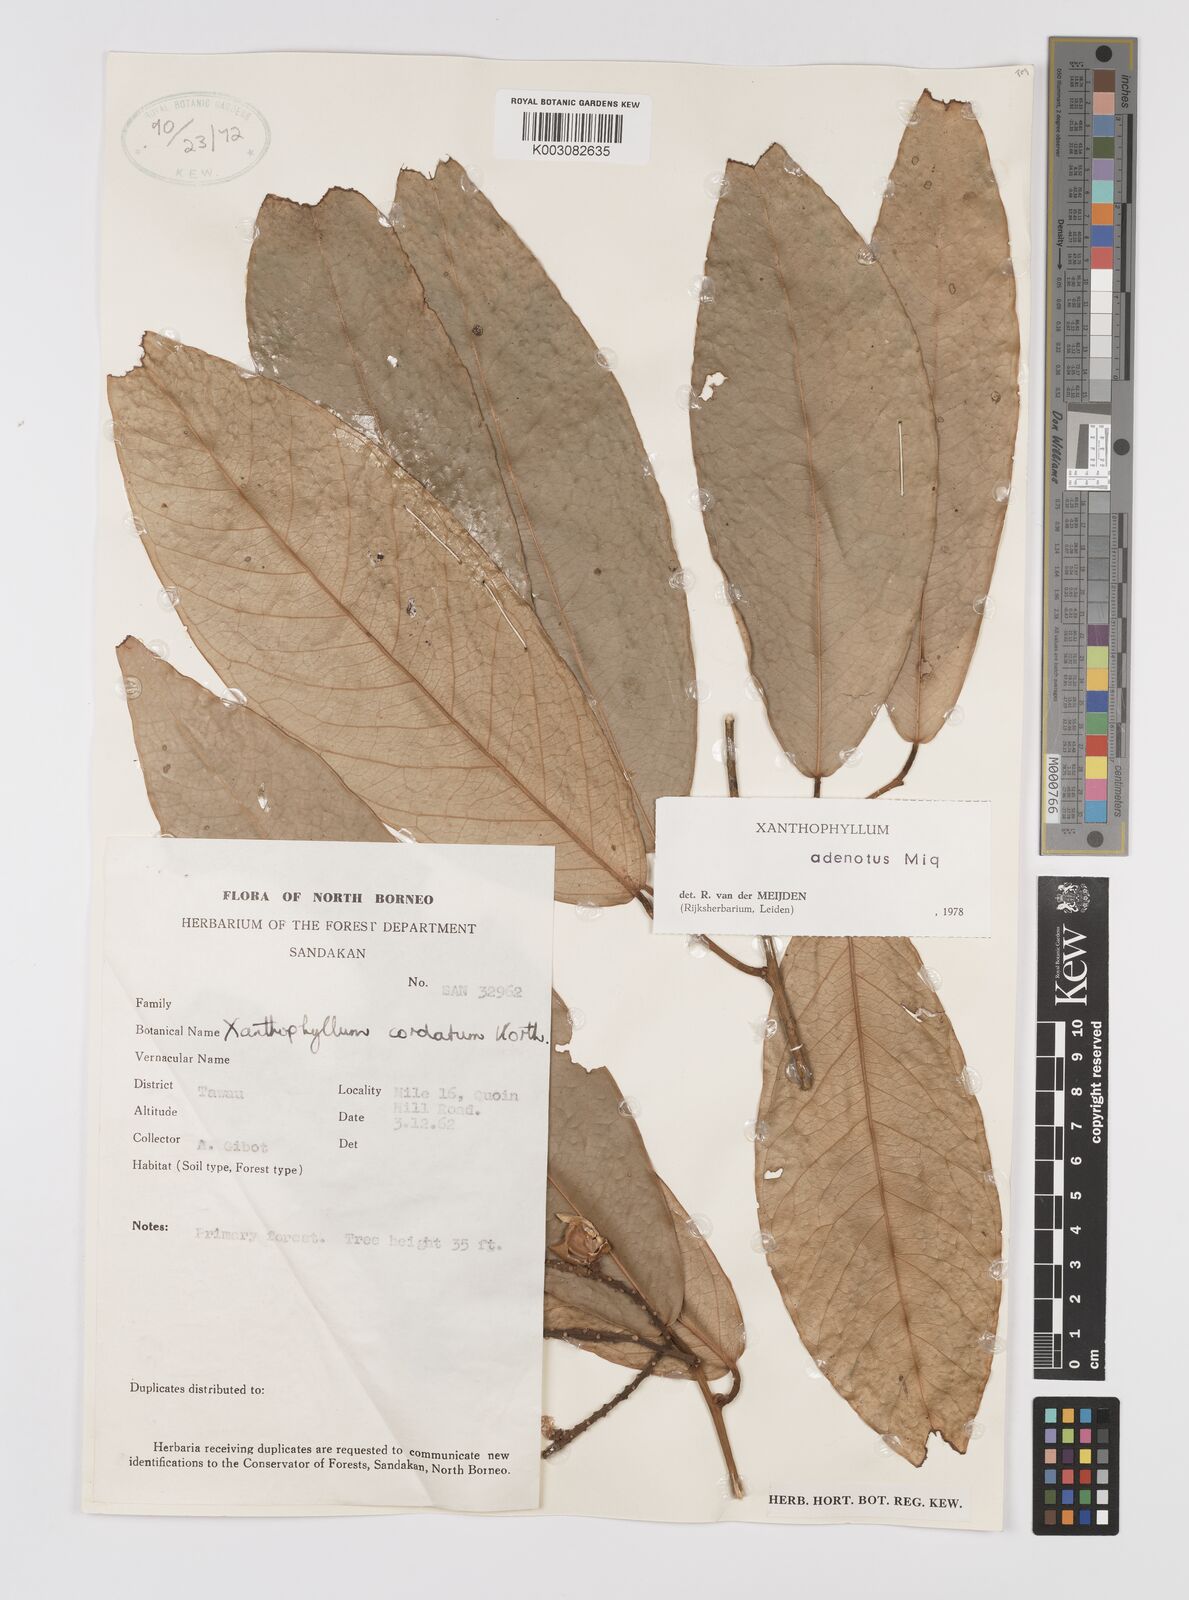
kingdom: Plantae
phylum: Tracheophyta
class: Magnoliopsida
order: Fabales
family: Polygalaceae
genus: Xanthophyllum
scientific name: Xanthophyllum adenotus
